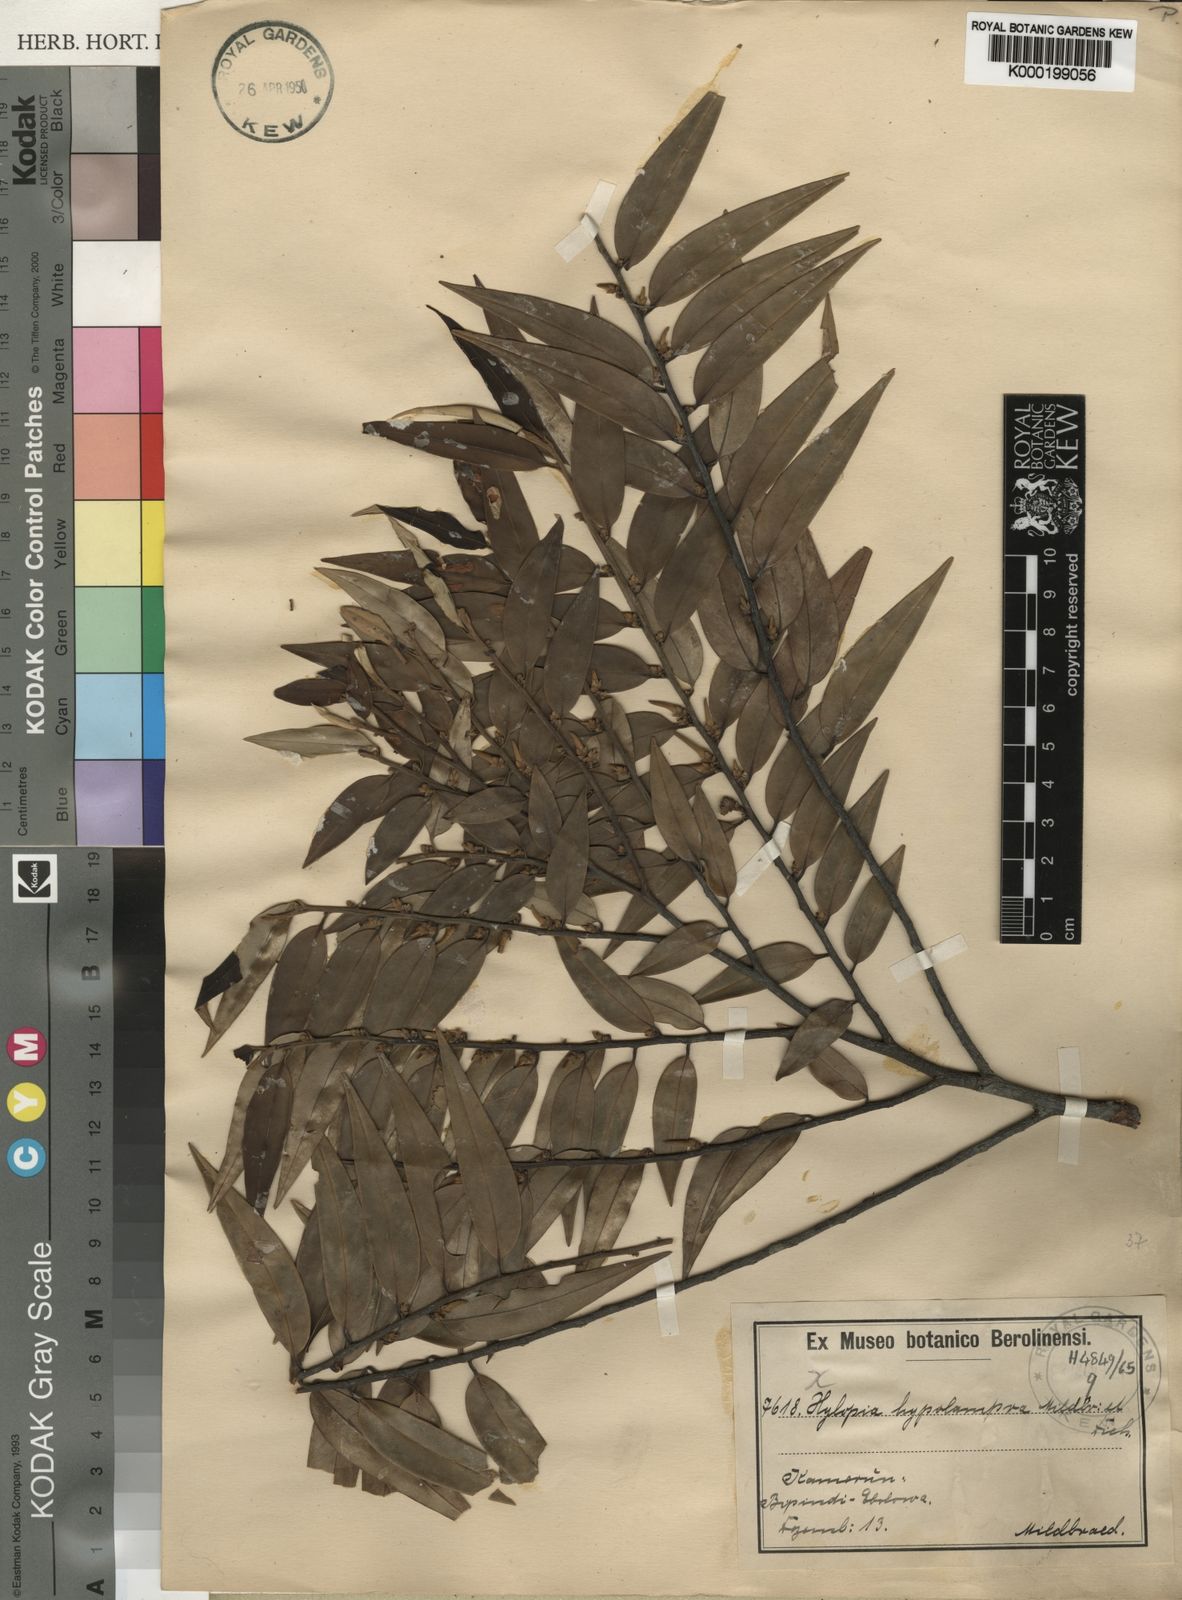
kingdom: Plantae
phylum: Tracheophyta
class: Magnoliopsida
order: Magnoliales
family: Annonaceae
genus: Xylopia
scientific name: Xylopia hypolampra
